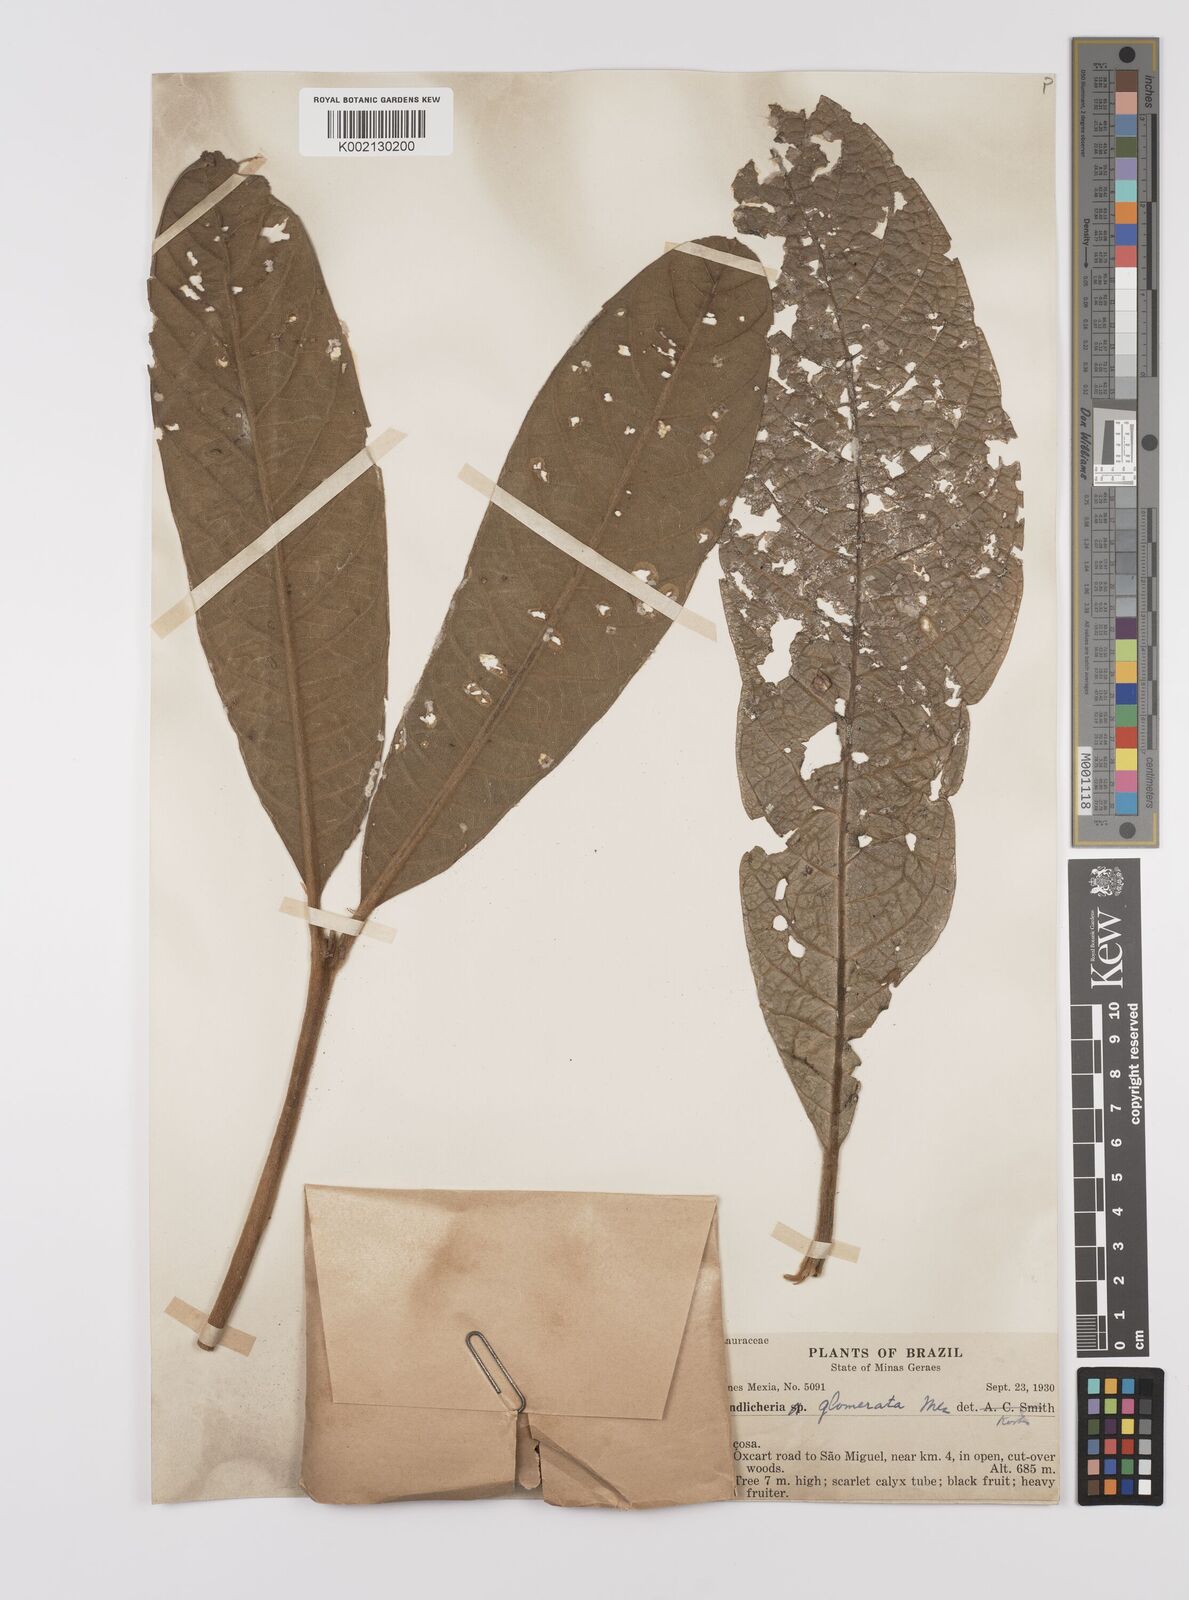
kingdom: Plantae
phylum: Tracheophyta
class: Magnoliopsida
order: Laurales
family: Lauraceae
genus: Endlicheria
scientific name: Endlicheria glomerata
